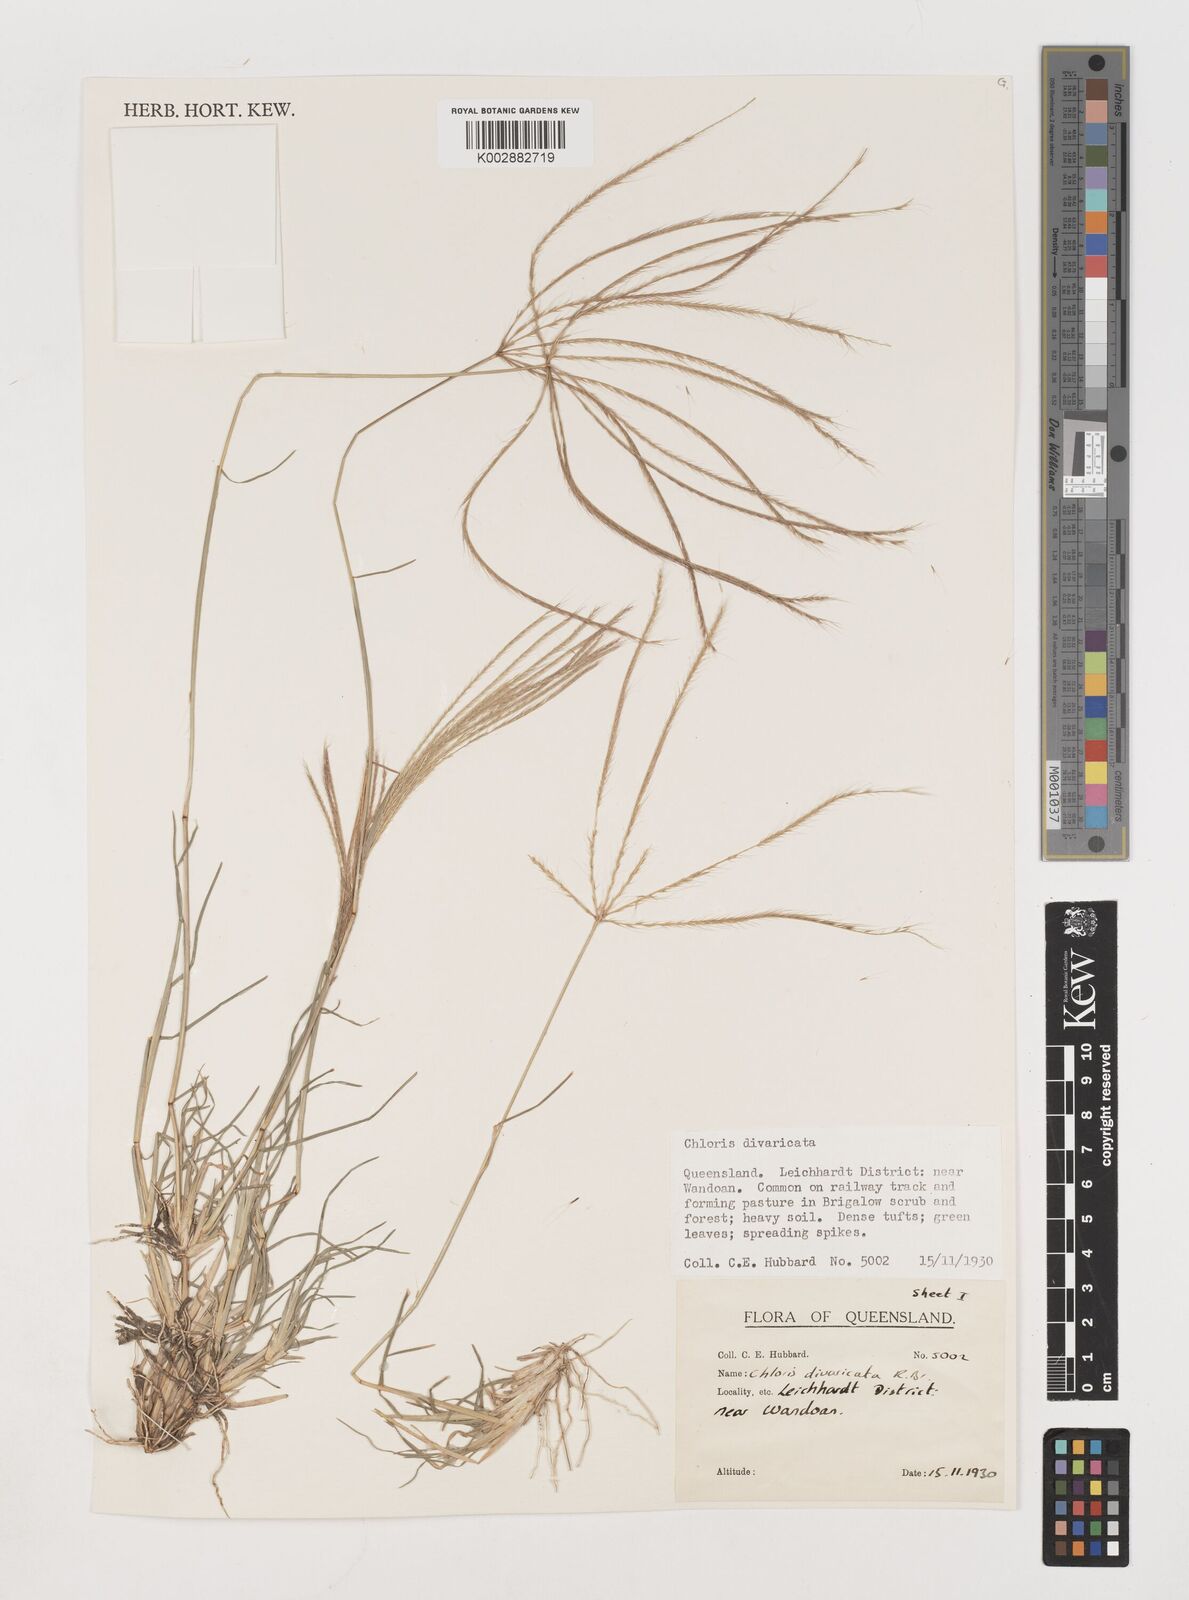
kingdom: Plantae
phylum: Tracheophyta
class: Liliopsida
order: Poales
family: Poaceae
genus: Chloris
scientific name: Chloris divaricata
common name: Spreading windmill grass
